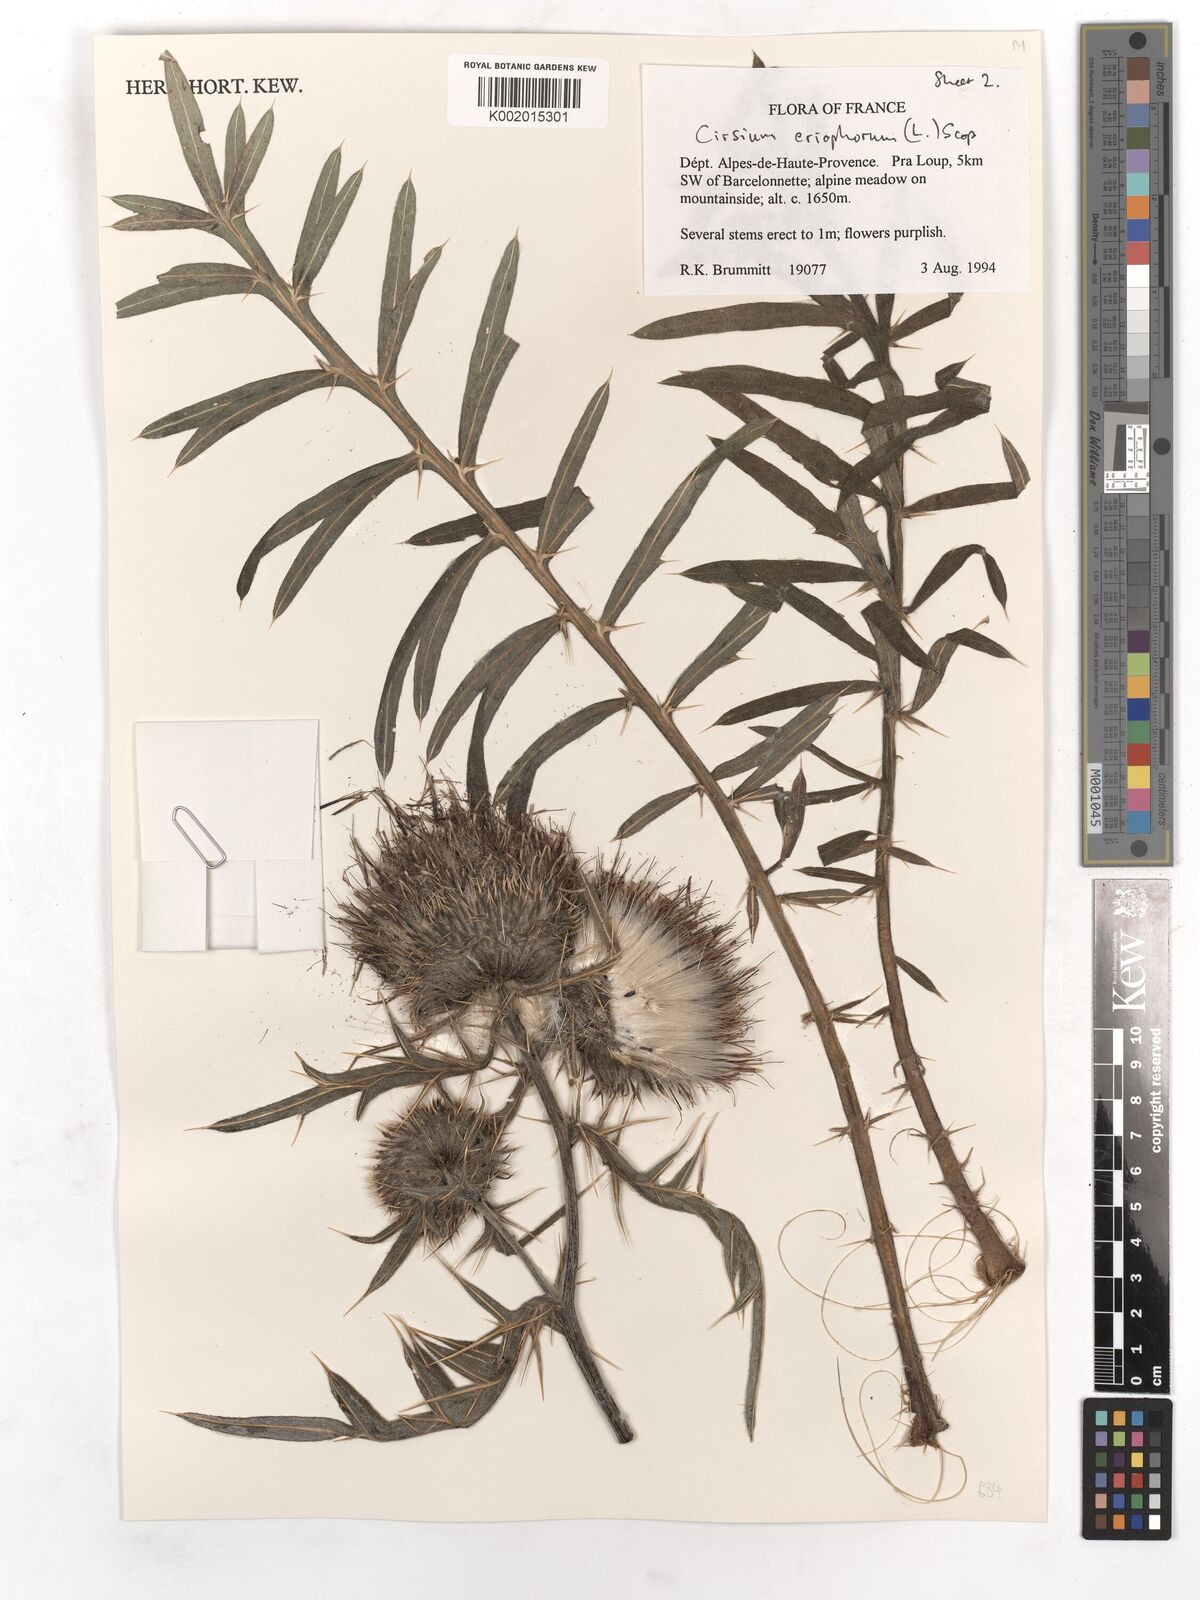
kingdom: Plantae
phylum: Tracheophyta
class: Magnoliopsida
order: Asterales
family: Asteraceae
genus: Lophiolepis
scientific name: Lophiolepis eriophora
